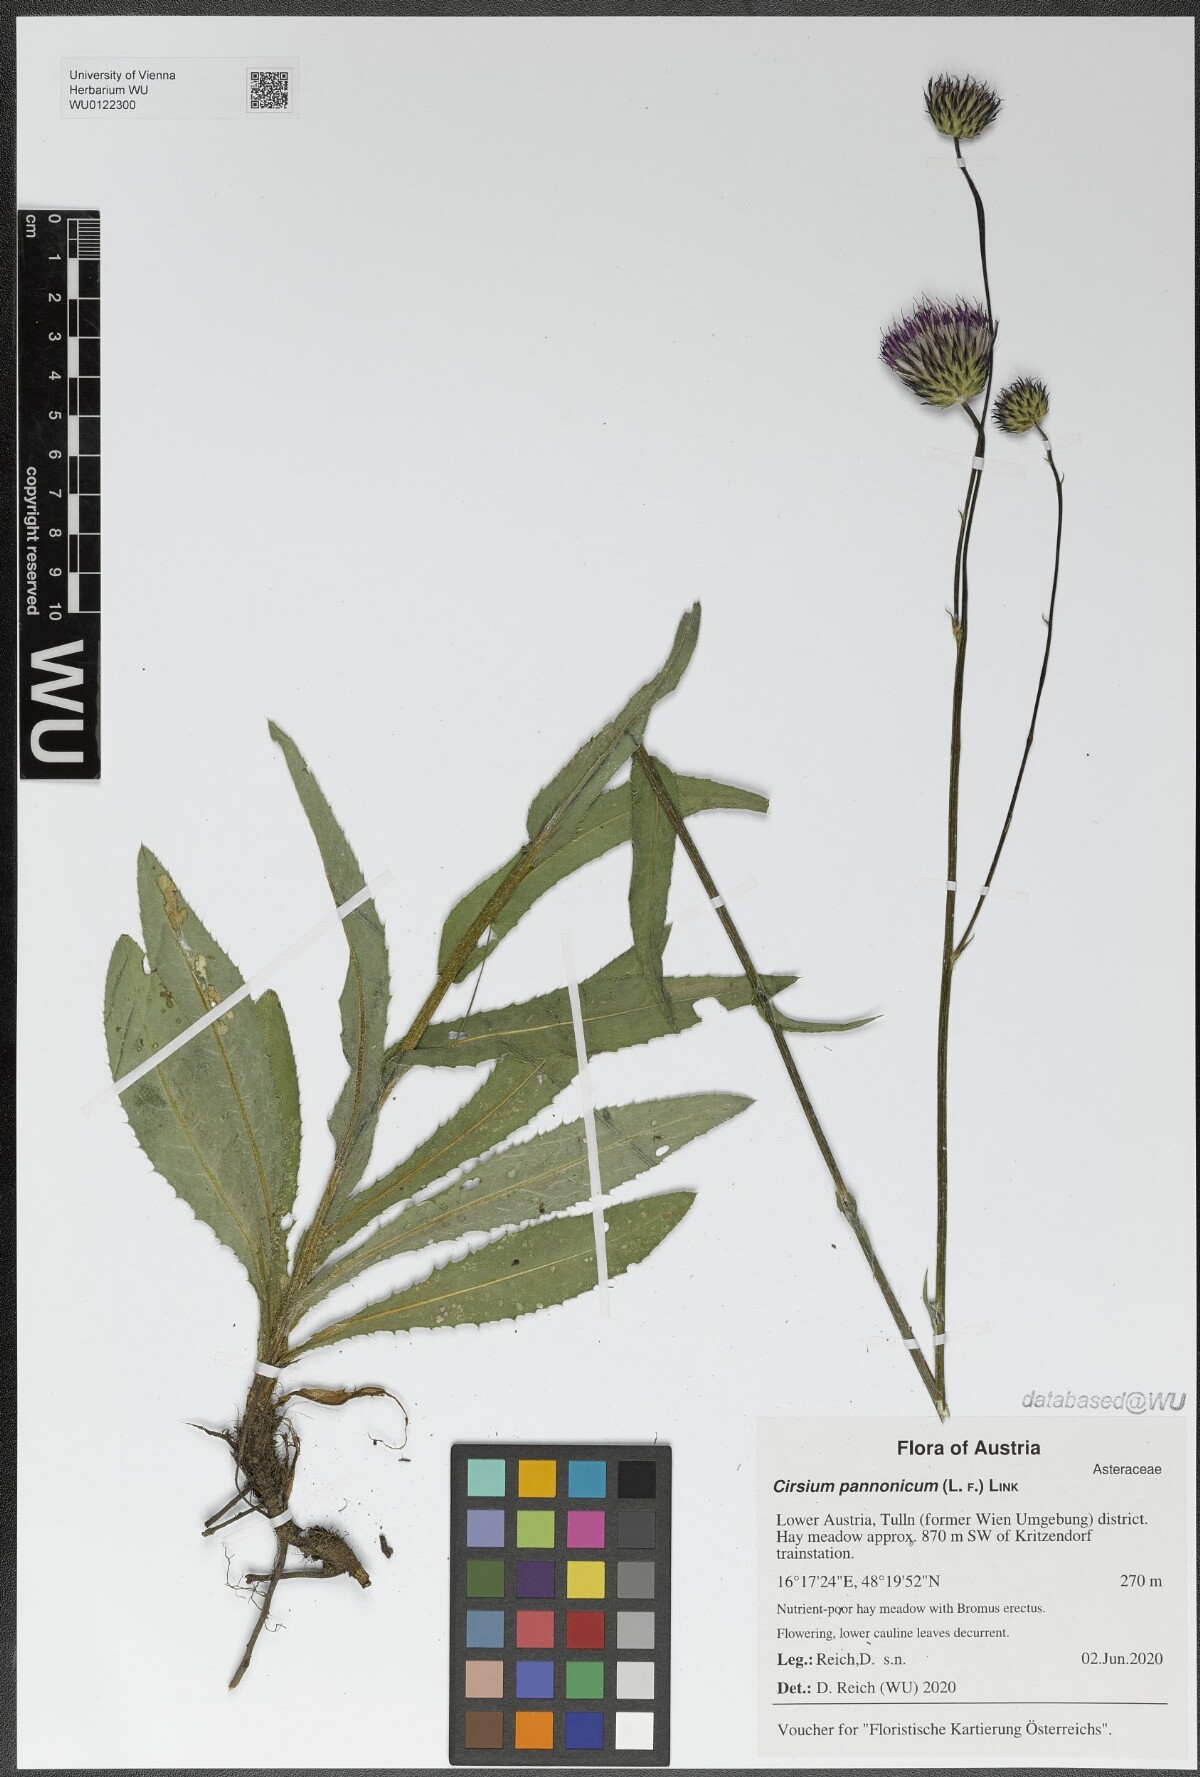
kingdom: Plantae
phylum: Tracheophyta
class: Magnoliopsida
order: Asterales
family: Asteraceae
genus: Cirsium
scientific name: Cirsium pannonicum
